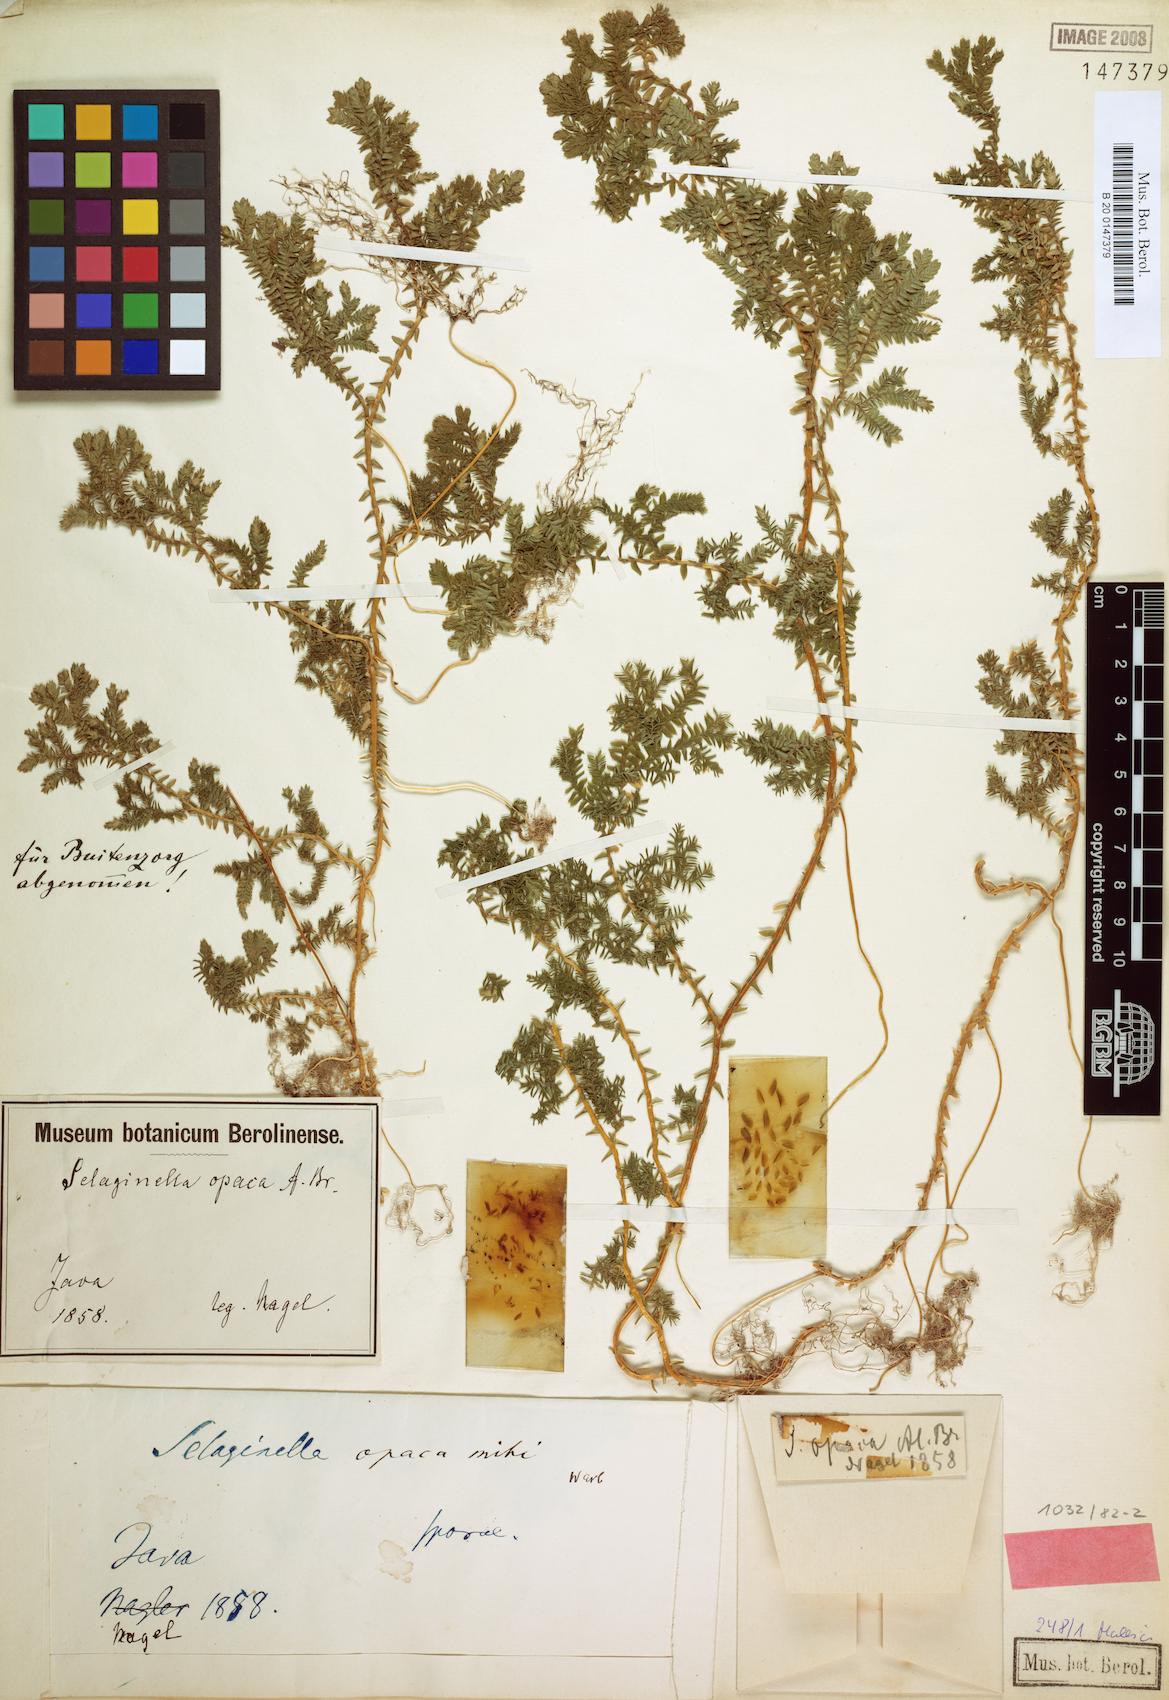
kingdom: Plantae
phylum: Tracheophyta
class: Lycopodiopsida
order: Selaginellales
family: Selaginellaceae
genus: Selaginella
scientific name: Selaginella bisulcata
